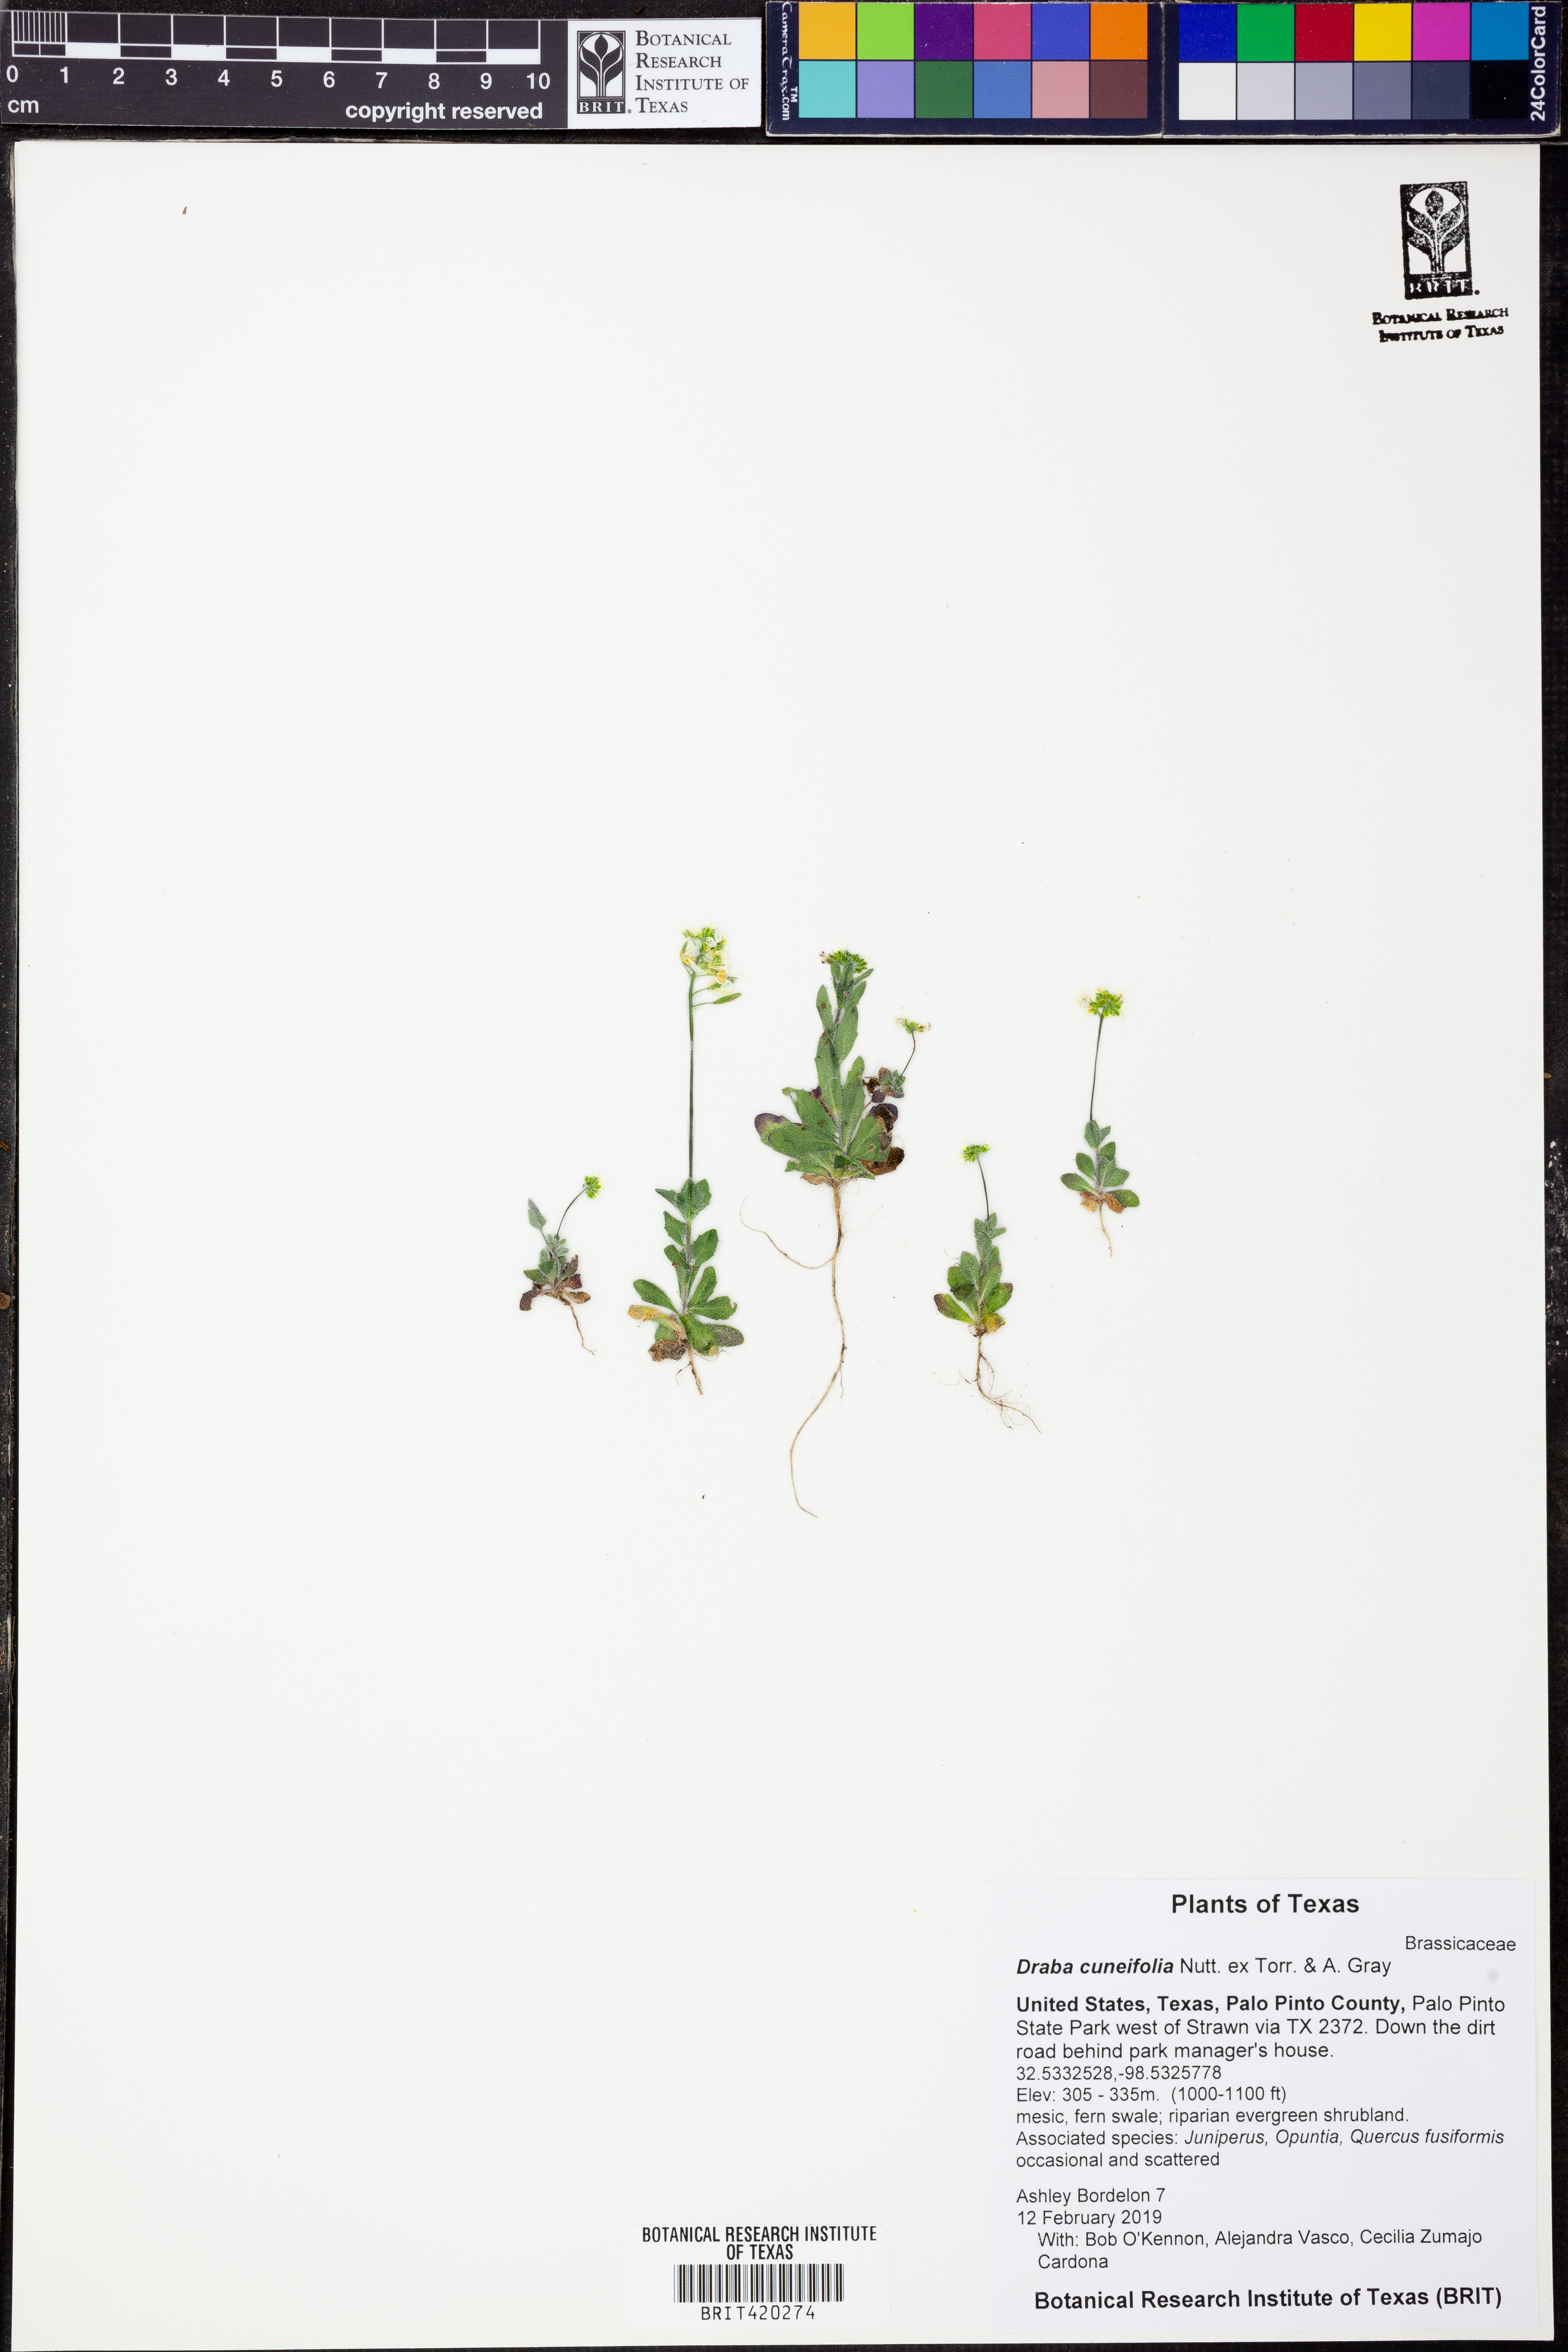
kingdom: Plantae
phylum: Tracheophyta
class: Magnoliopsida
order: Brassicales
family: Brassicaceae
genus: Tomostima
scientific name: Tomostima cuneifolia
